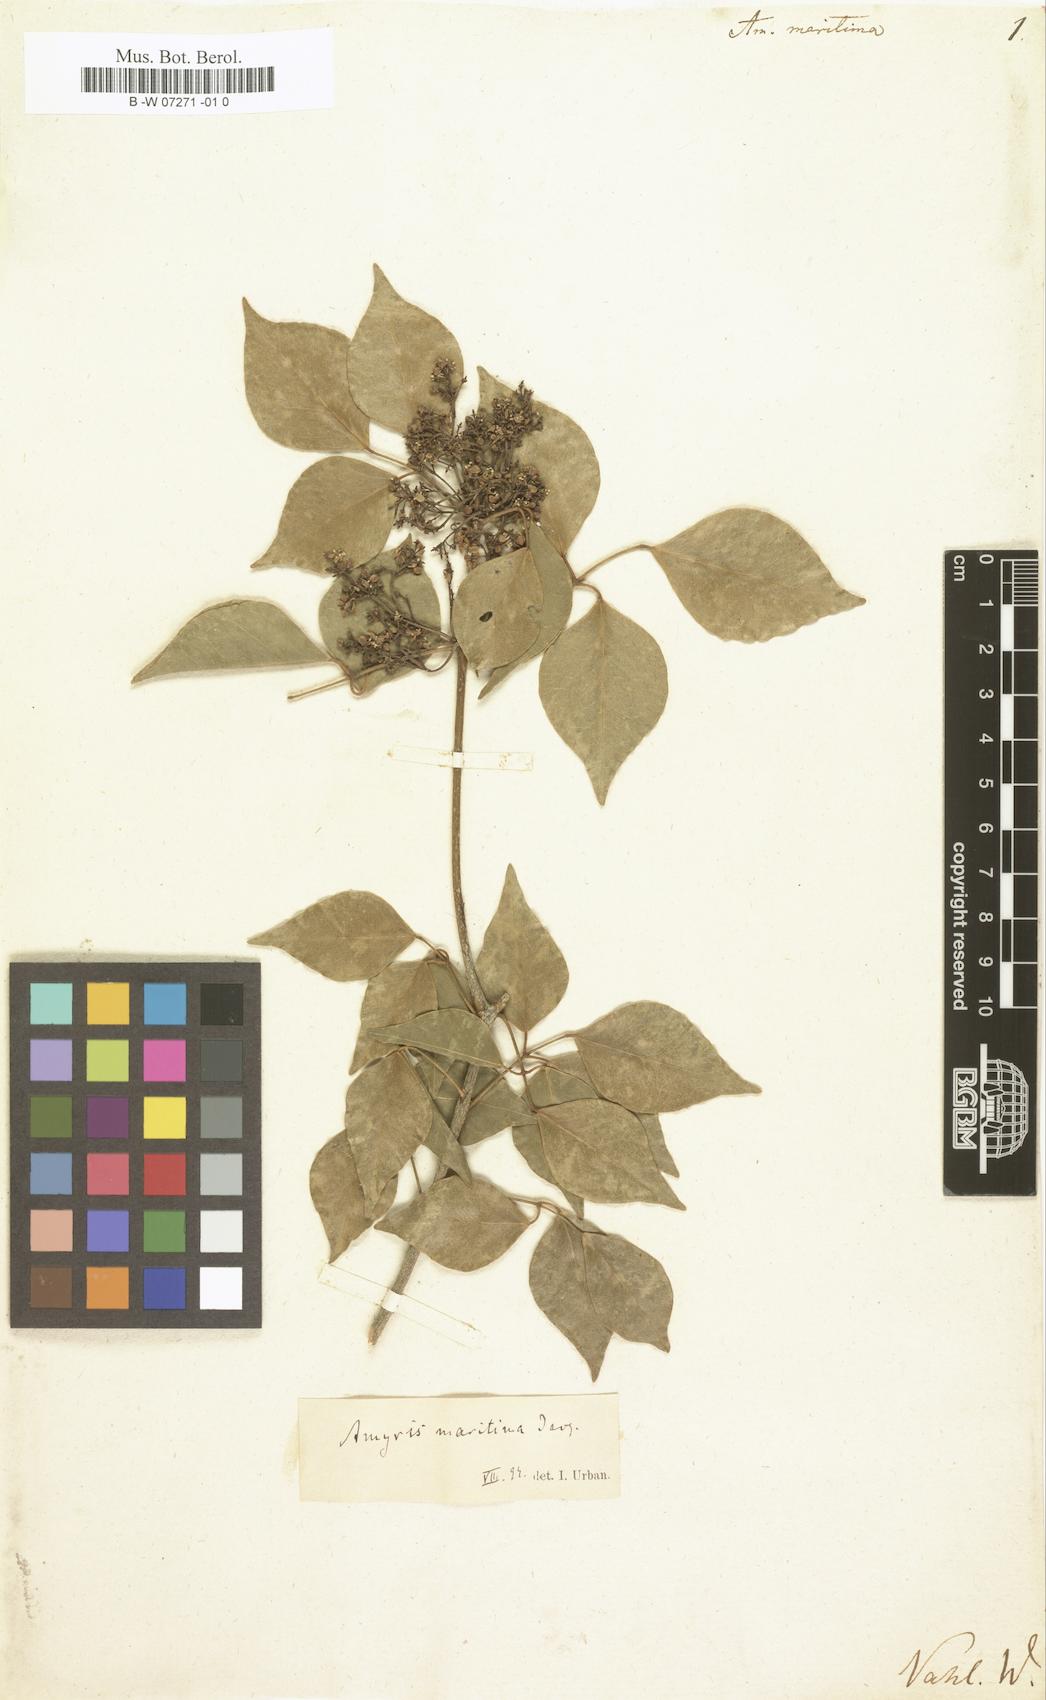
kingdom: Plantae
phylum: Tracheophyta
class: Magnoliopsida
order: Sapindales
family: Rutaceae
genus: Amyris
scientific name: Amyris elemifera
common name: Sea amyris
